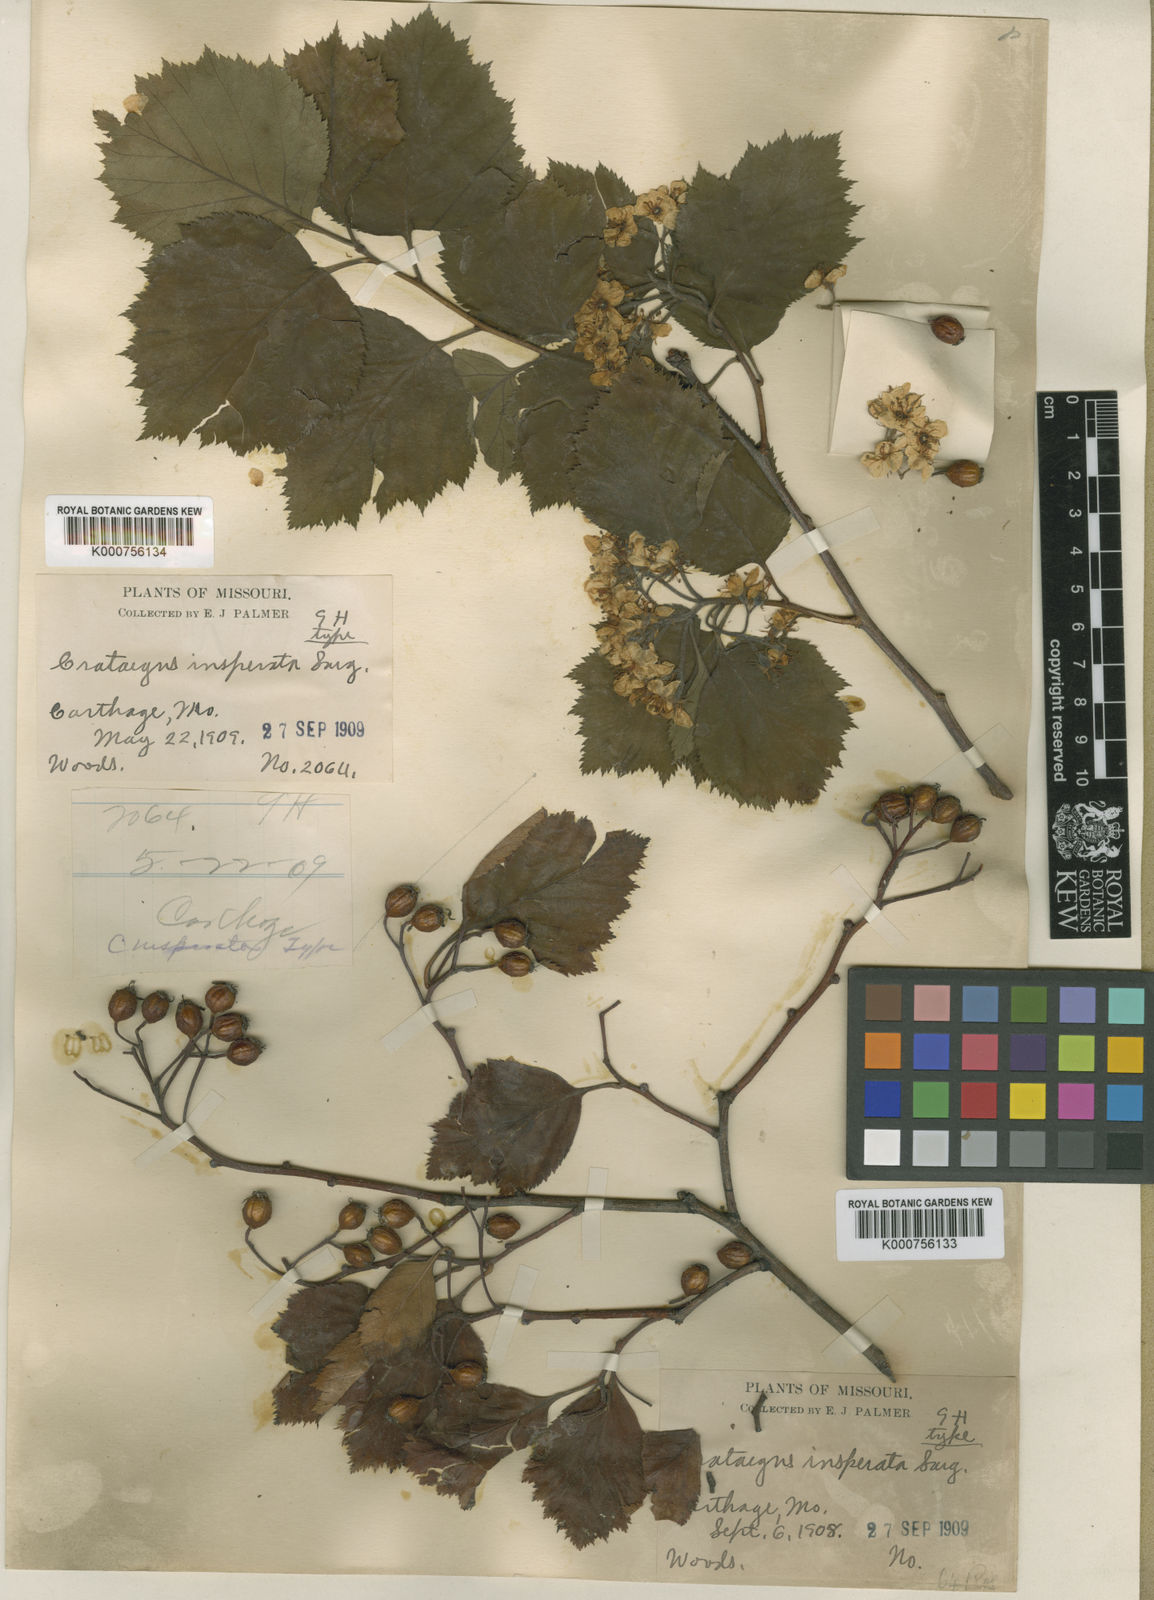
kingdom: Plantae
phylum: Tracheophyta
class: Magnoliopsida
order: Rosales
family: Rosaceae
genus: Crataegus
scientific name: Crataegus insperata
